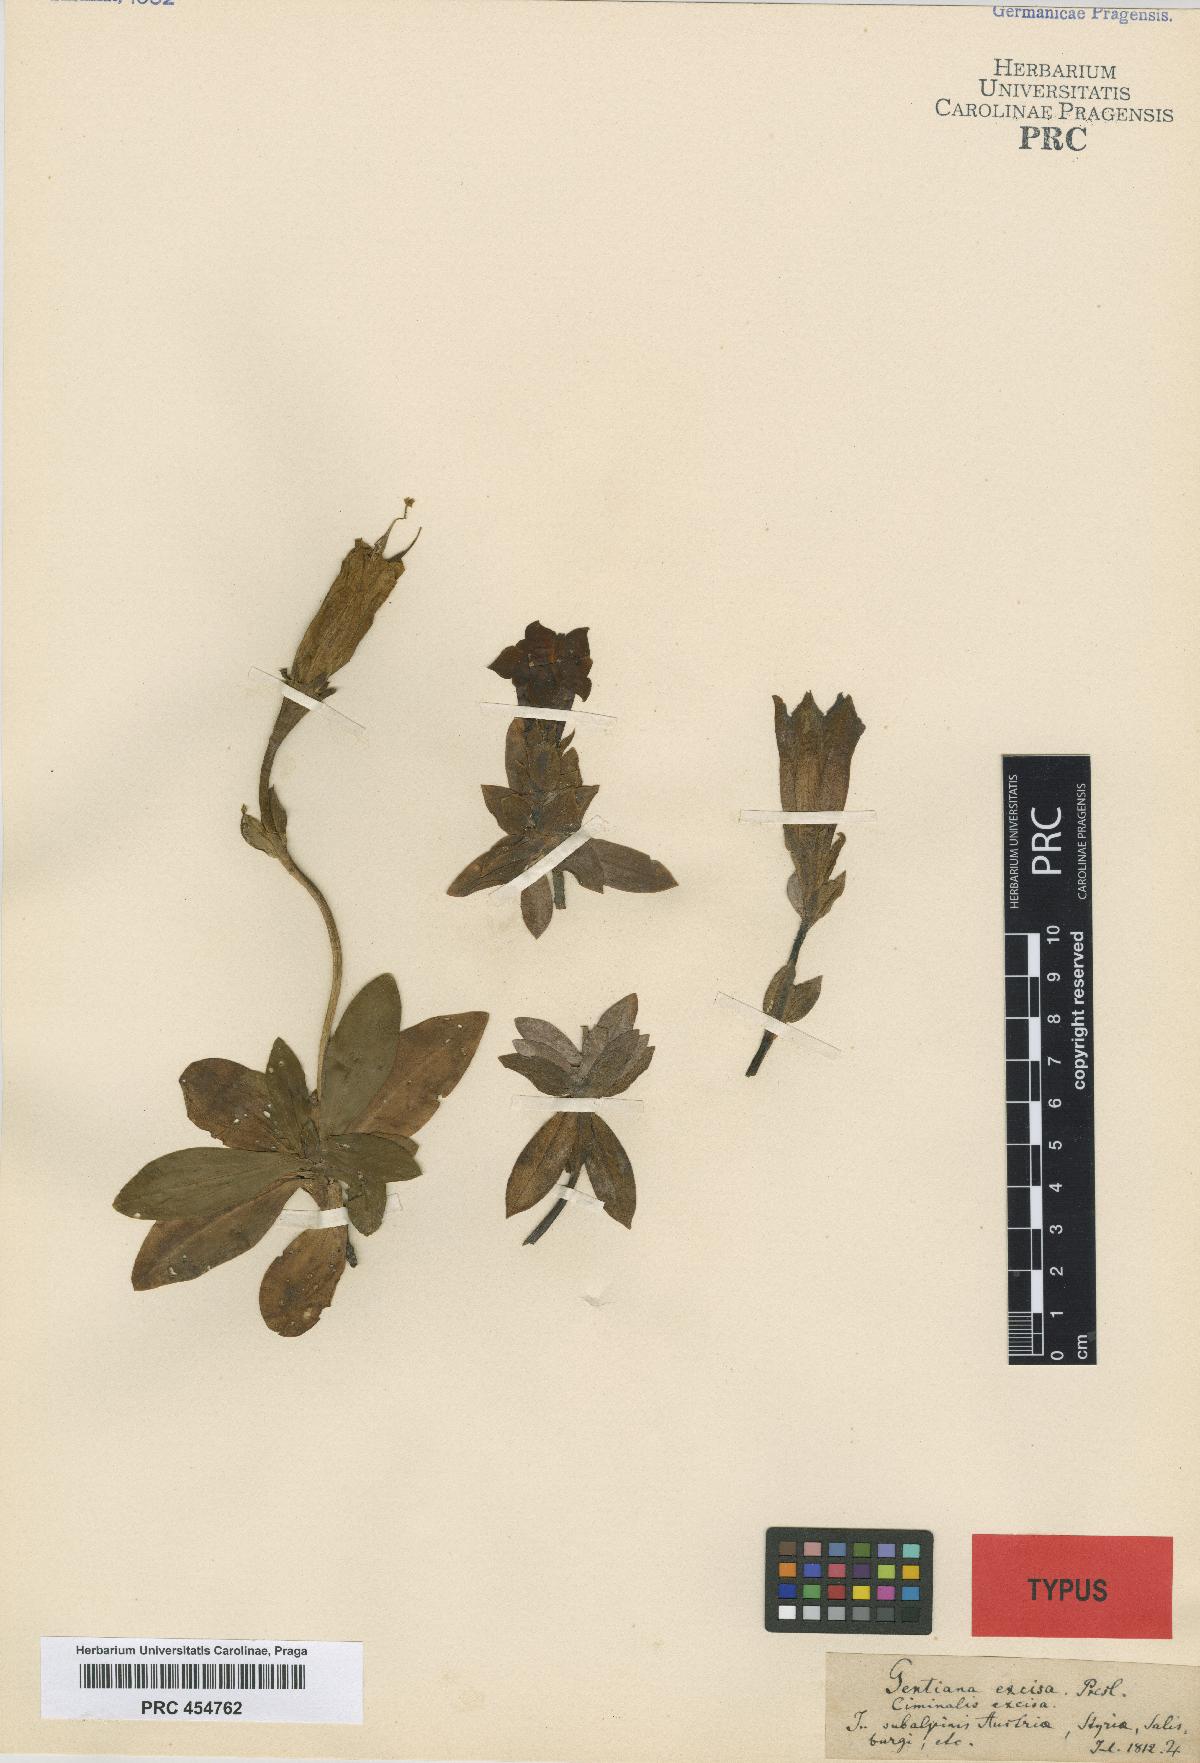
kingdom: Plantae
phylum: Tracheophyta
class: Magnoliopsida
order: Gentianales
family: Gentianaceae
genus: Gentiana
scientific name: Gentiana acaulis
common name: Trumpet gentian
